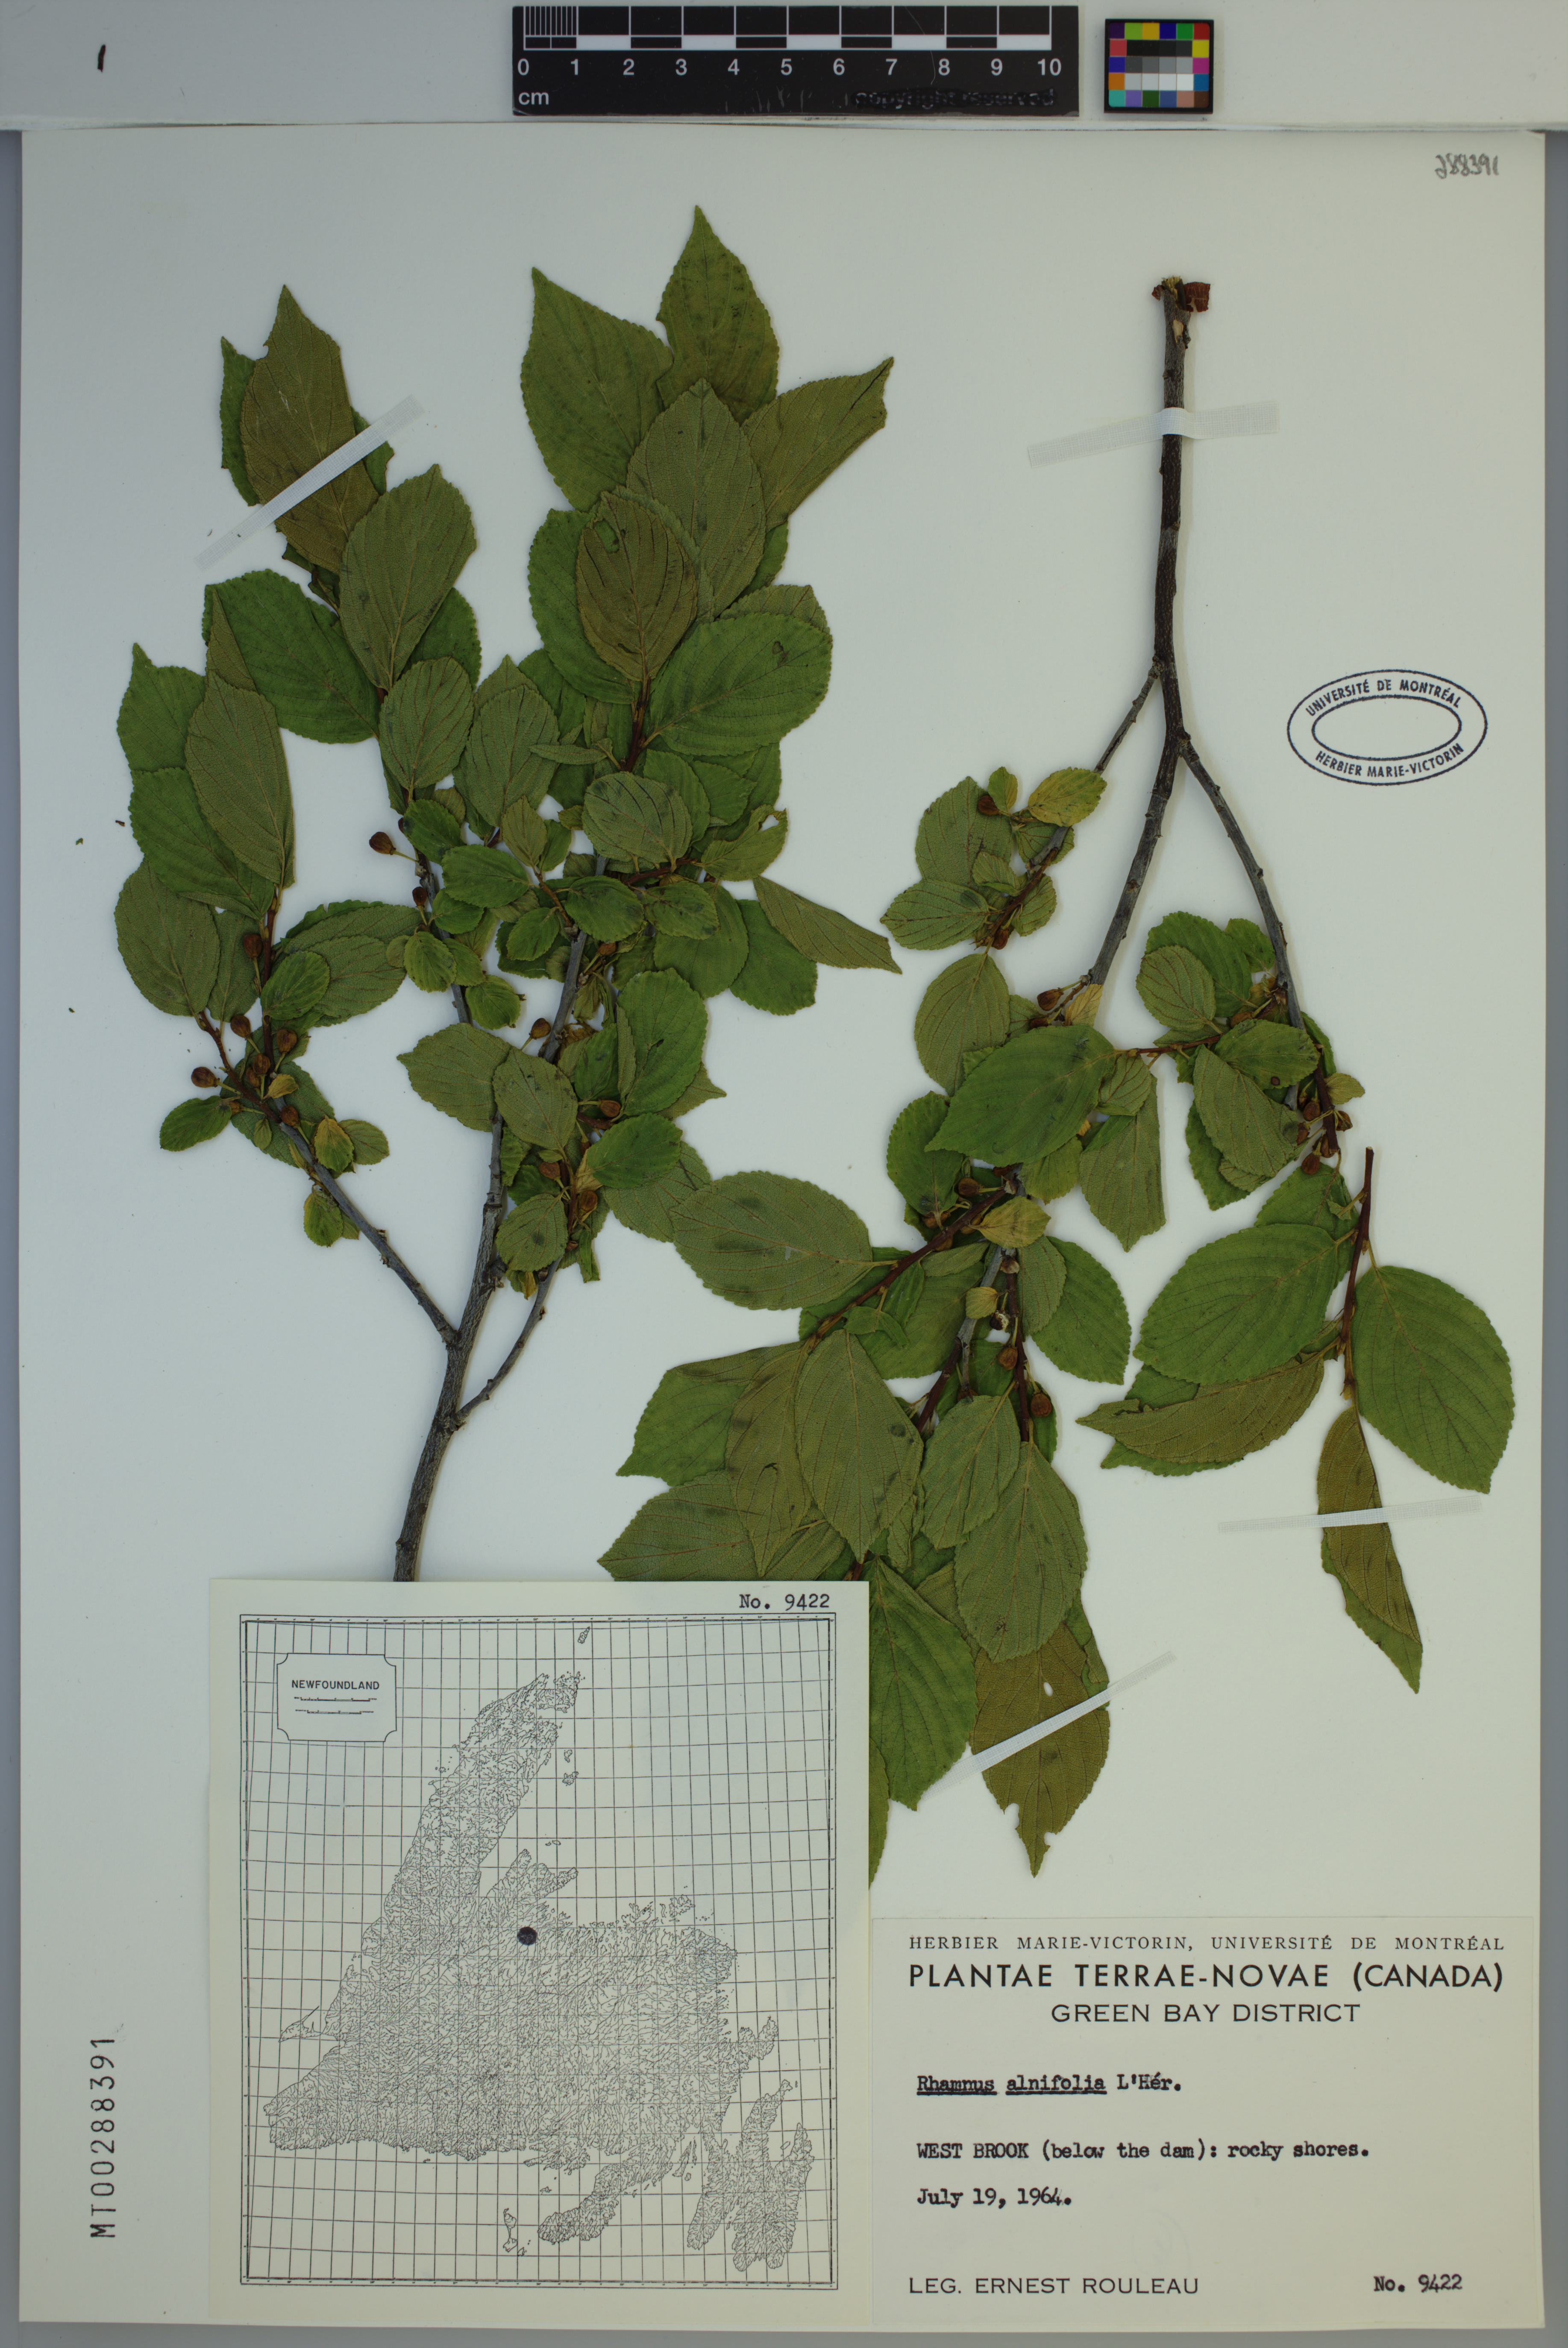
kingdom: Plantae
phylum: Tracheophyta
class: Magnoliopsida
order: Rosales
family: Rhamnaceae
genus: Endotropis
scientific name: Endotropis alnifolia
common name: American alder-buckthorn
